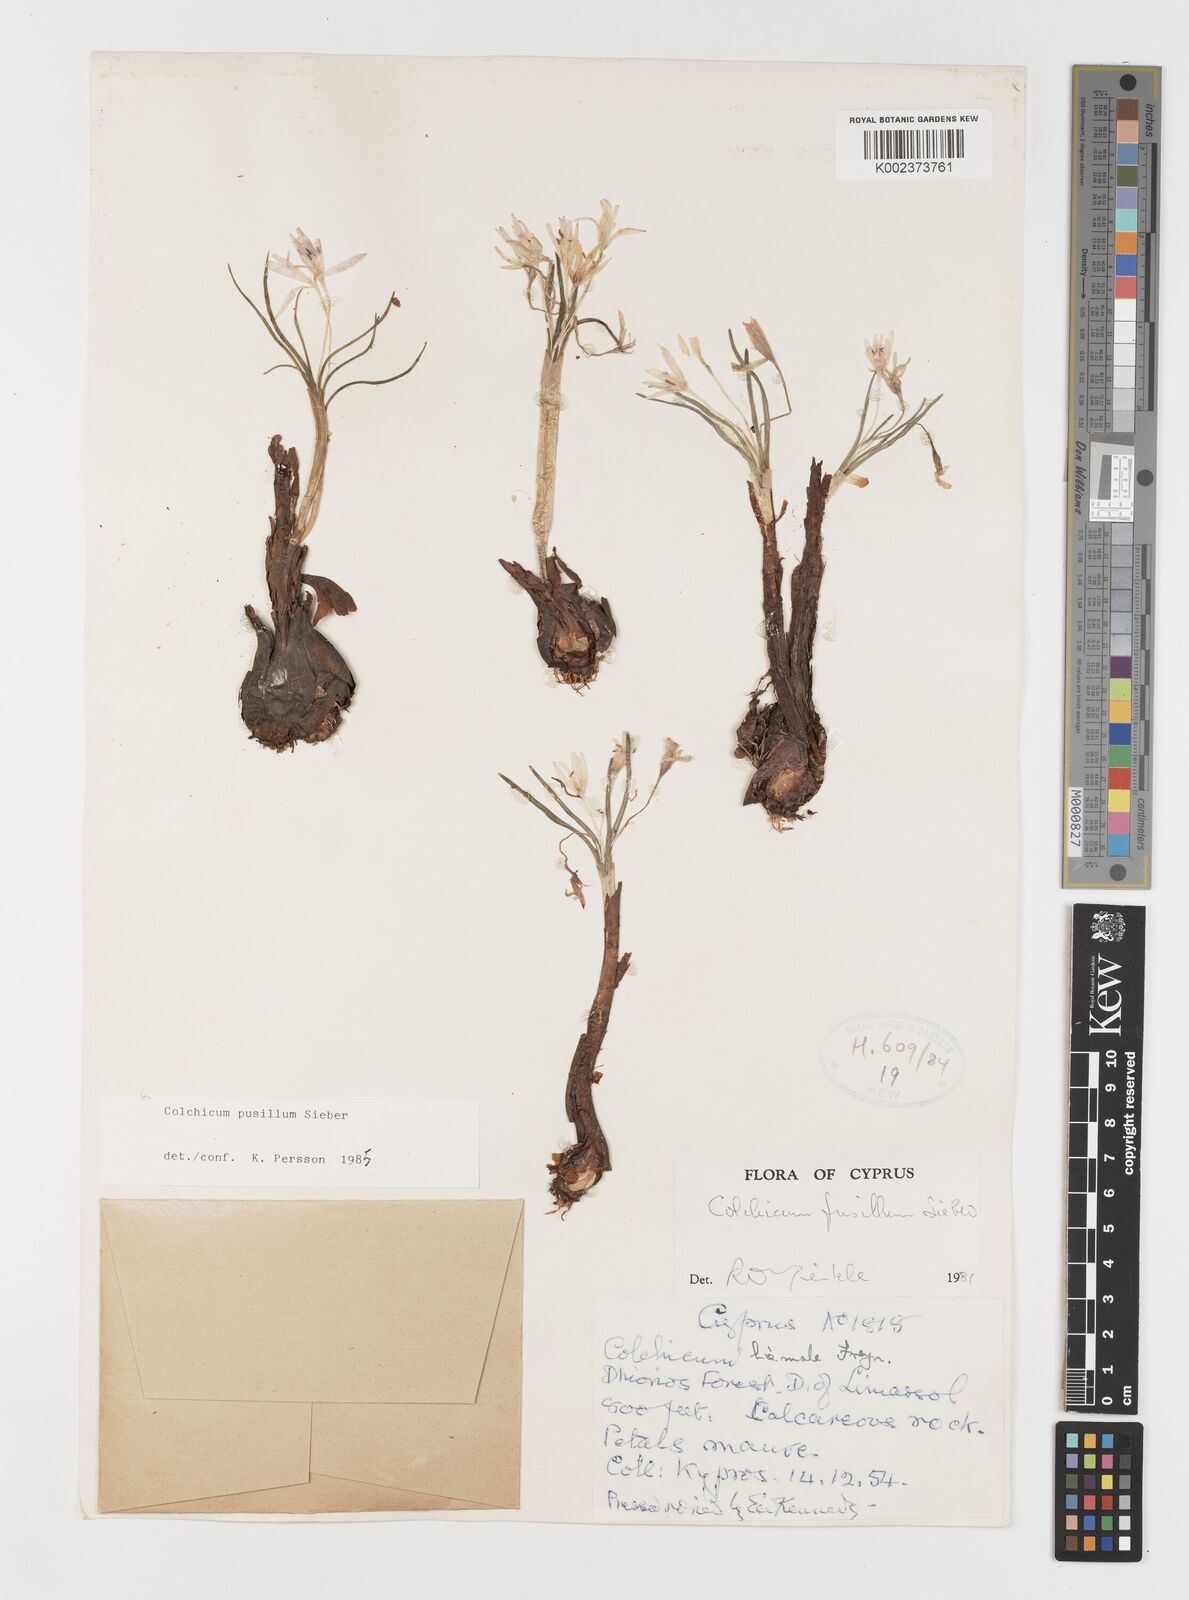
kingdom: Plantae
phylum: Tracheophyta
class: Liliopsida
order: Liliales
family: Colchicaceae
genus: Colchicum
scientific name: Colchicum pusillum
